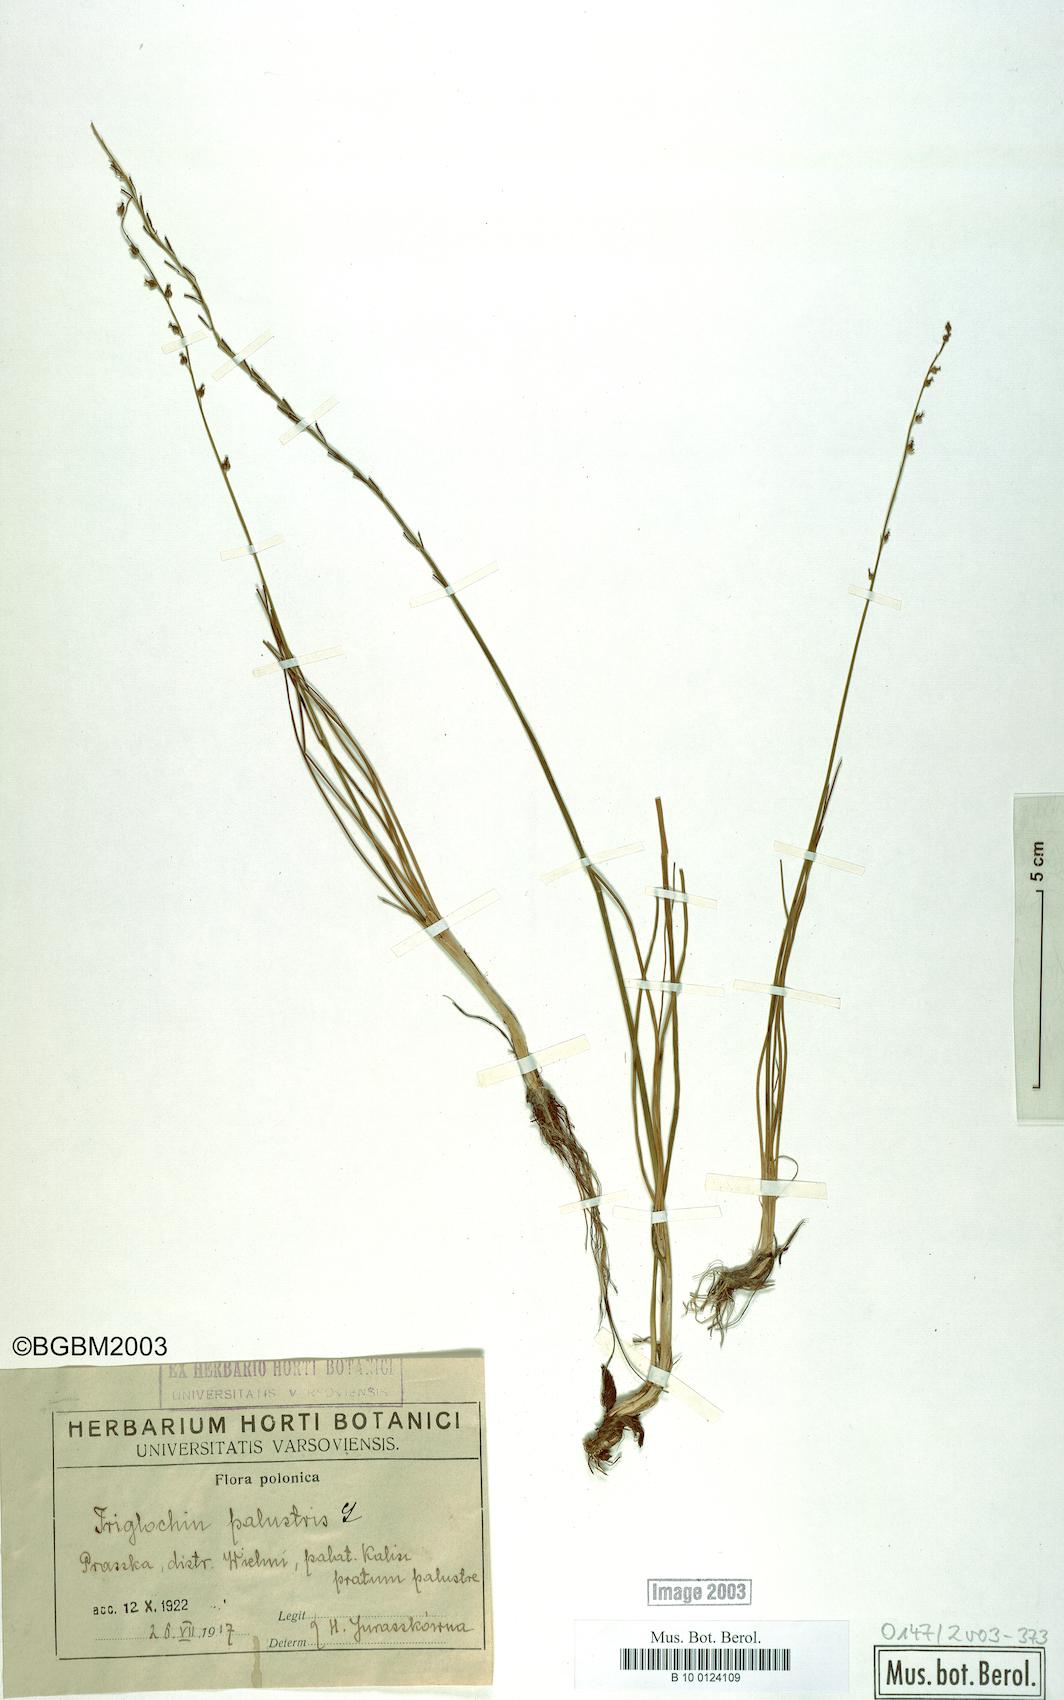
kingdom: Plantae
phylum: Tracheophyta
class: Liliopsida
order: Alismatales
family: Juncaginaceae
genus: Triglochin
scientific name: Triglochin palustris
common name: Marsh arrowgrass
